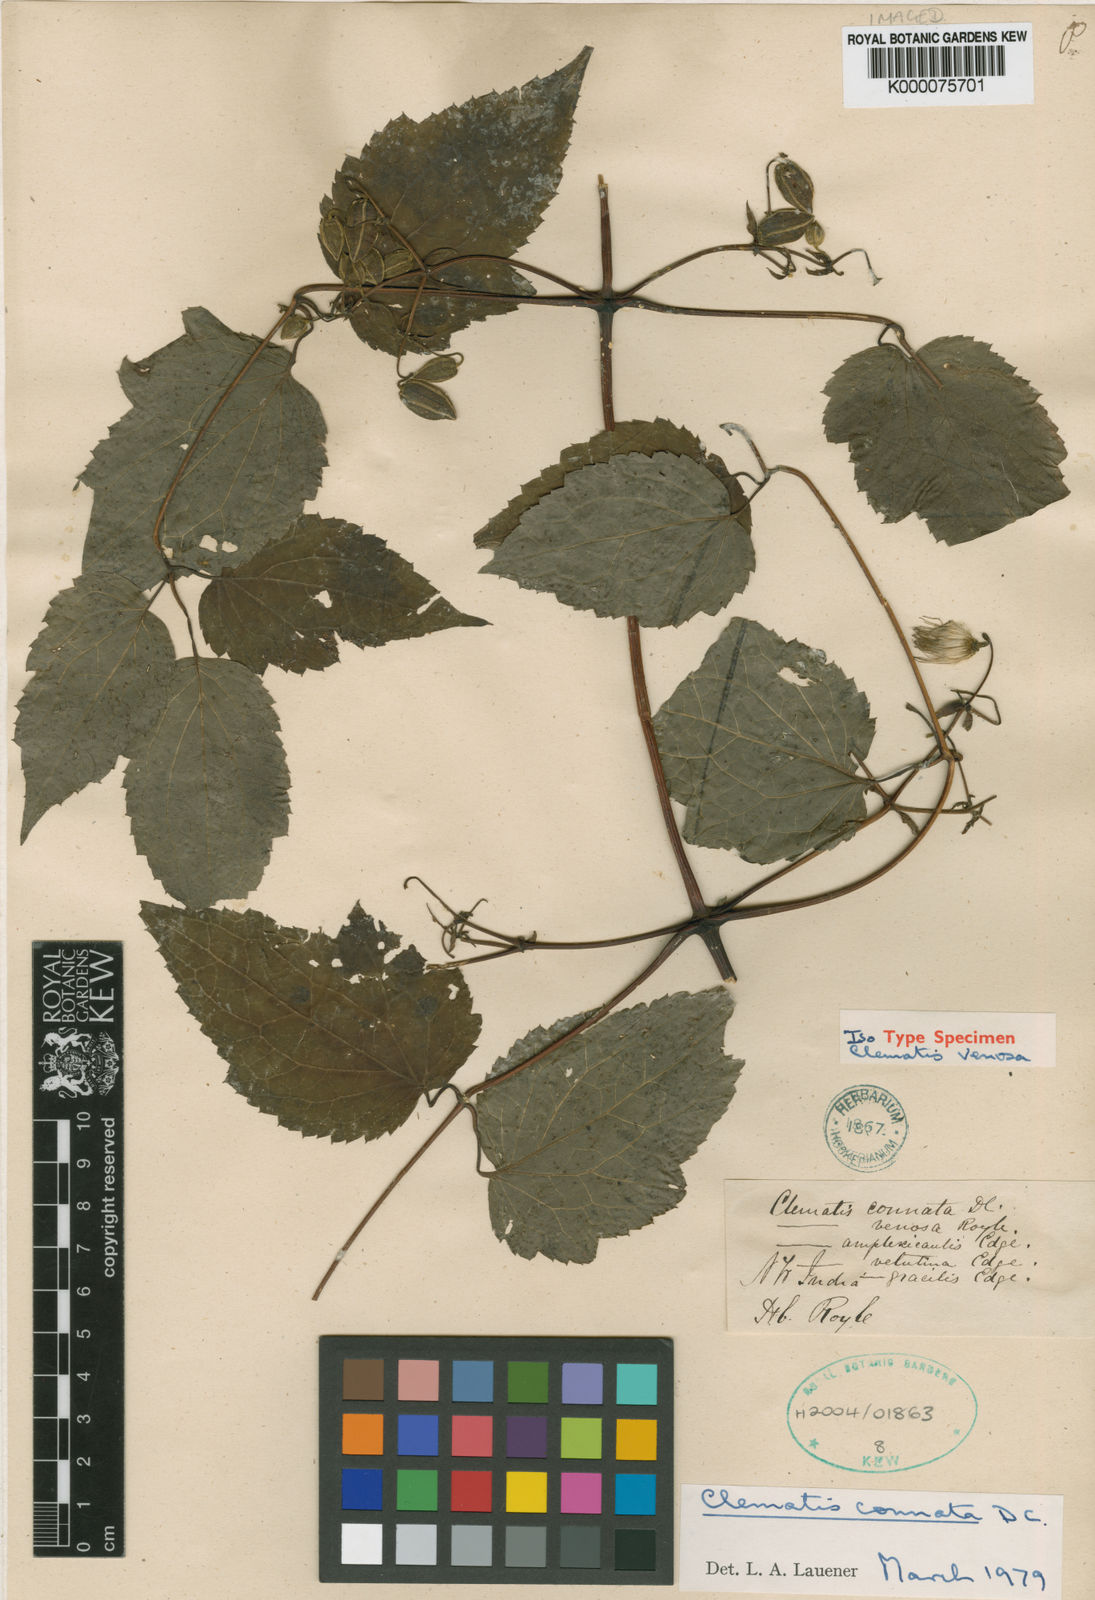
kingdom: Plantae
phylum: Tracheophyta
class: Magnoliopsida
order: Ranunculales
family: Ranunculaceae
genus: Clematis
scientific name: Clematis connata
